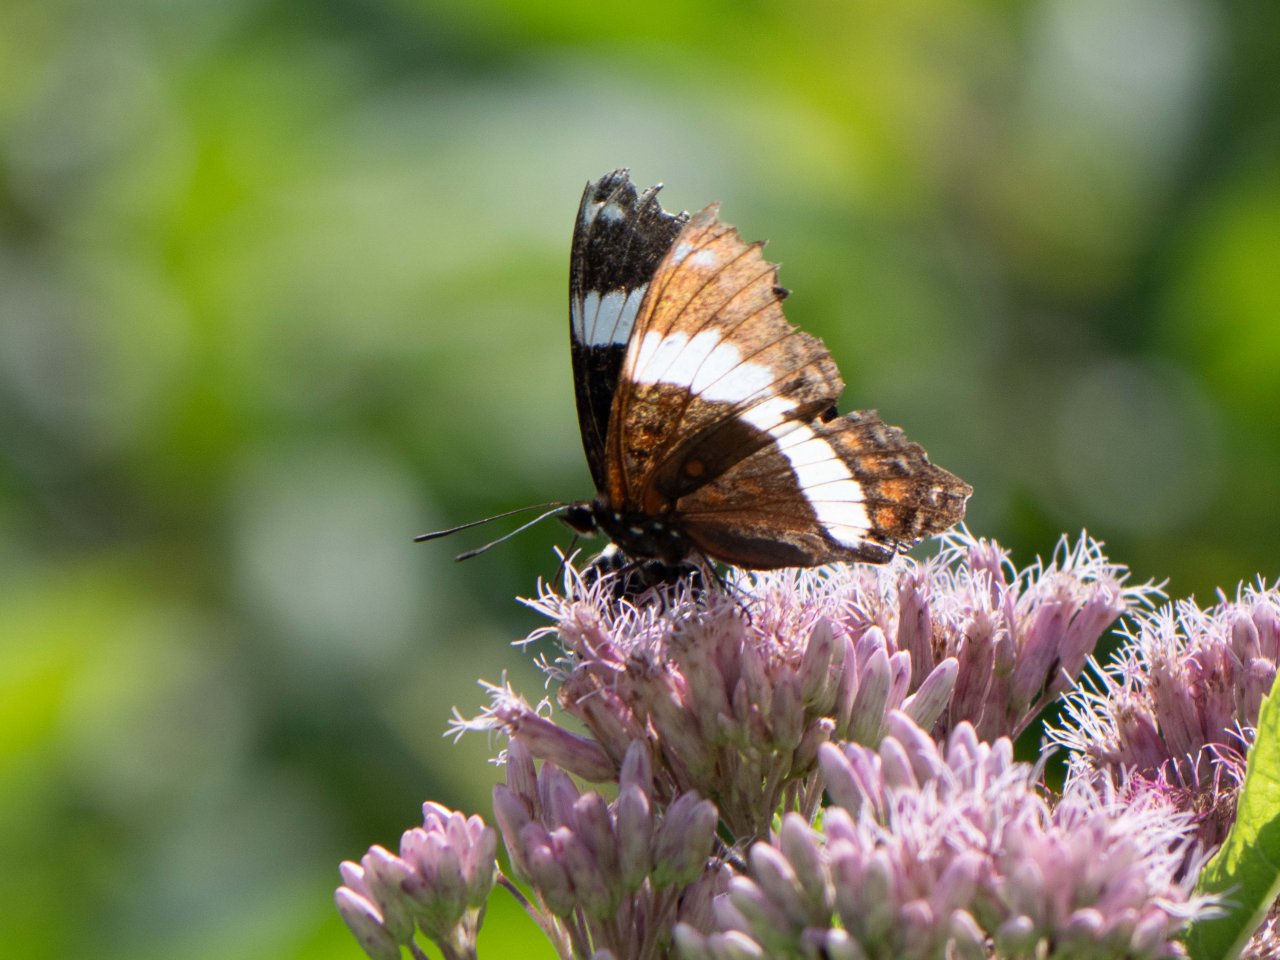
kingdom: Animalia
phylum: Arthropoda
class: Insecta
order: Lepidoptera
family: Nymphalidae
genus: Limenitis
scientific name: Limenitis arthemis
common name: Red-spotted Admiral
